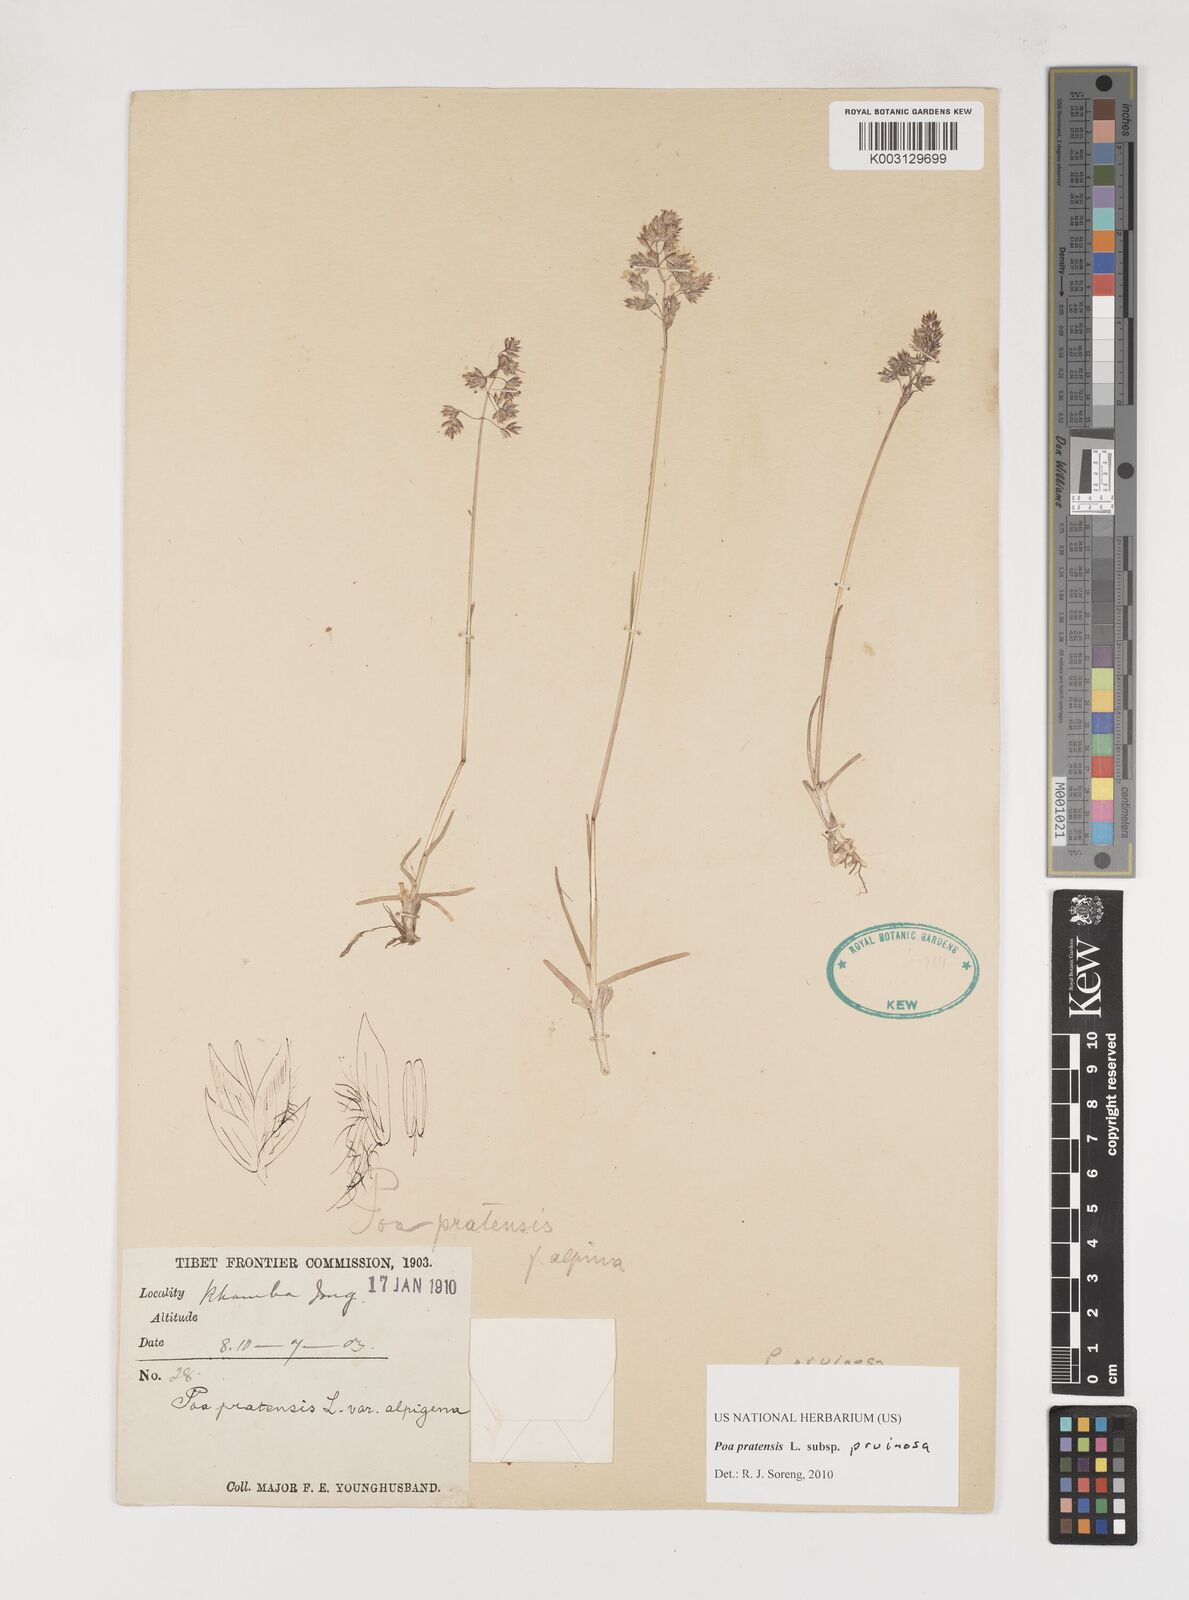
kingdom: Plantae
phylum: Tracheophyta
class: Liliopsida
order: Poales
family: Poaceae
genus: Poa
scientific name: Poa tianschanica
